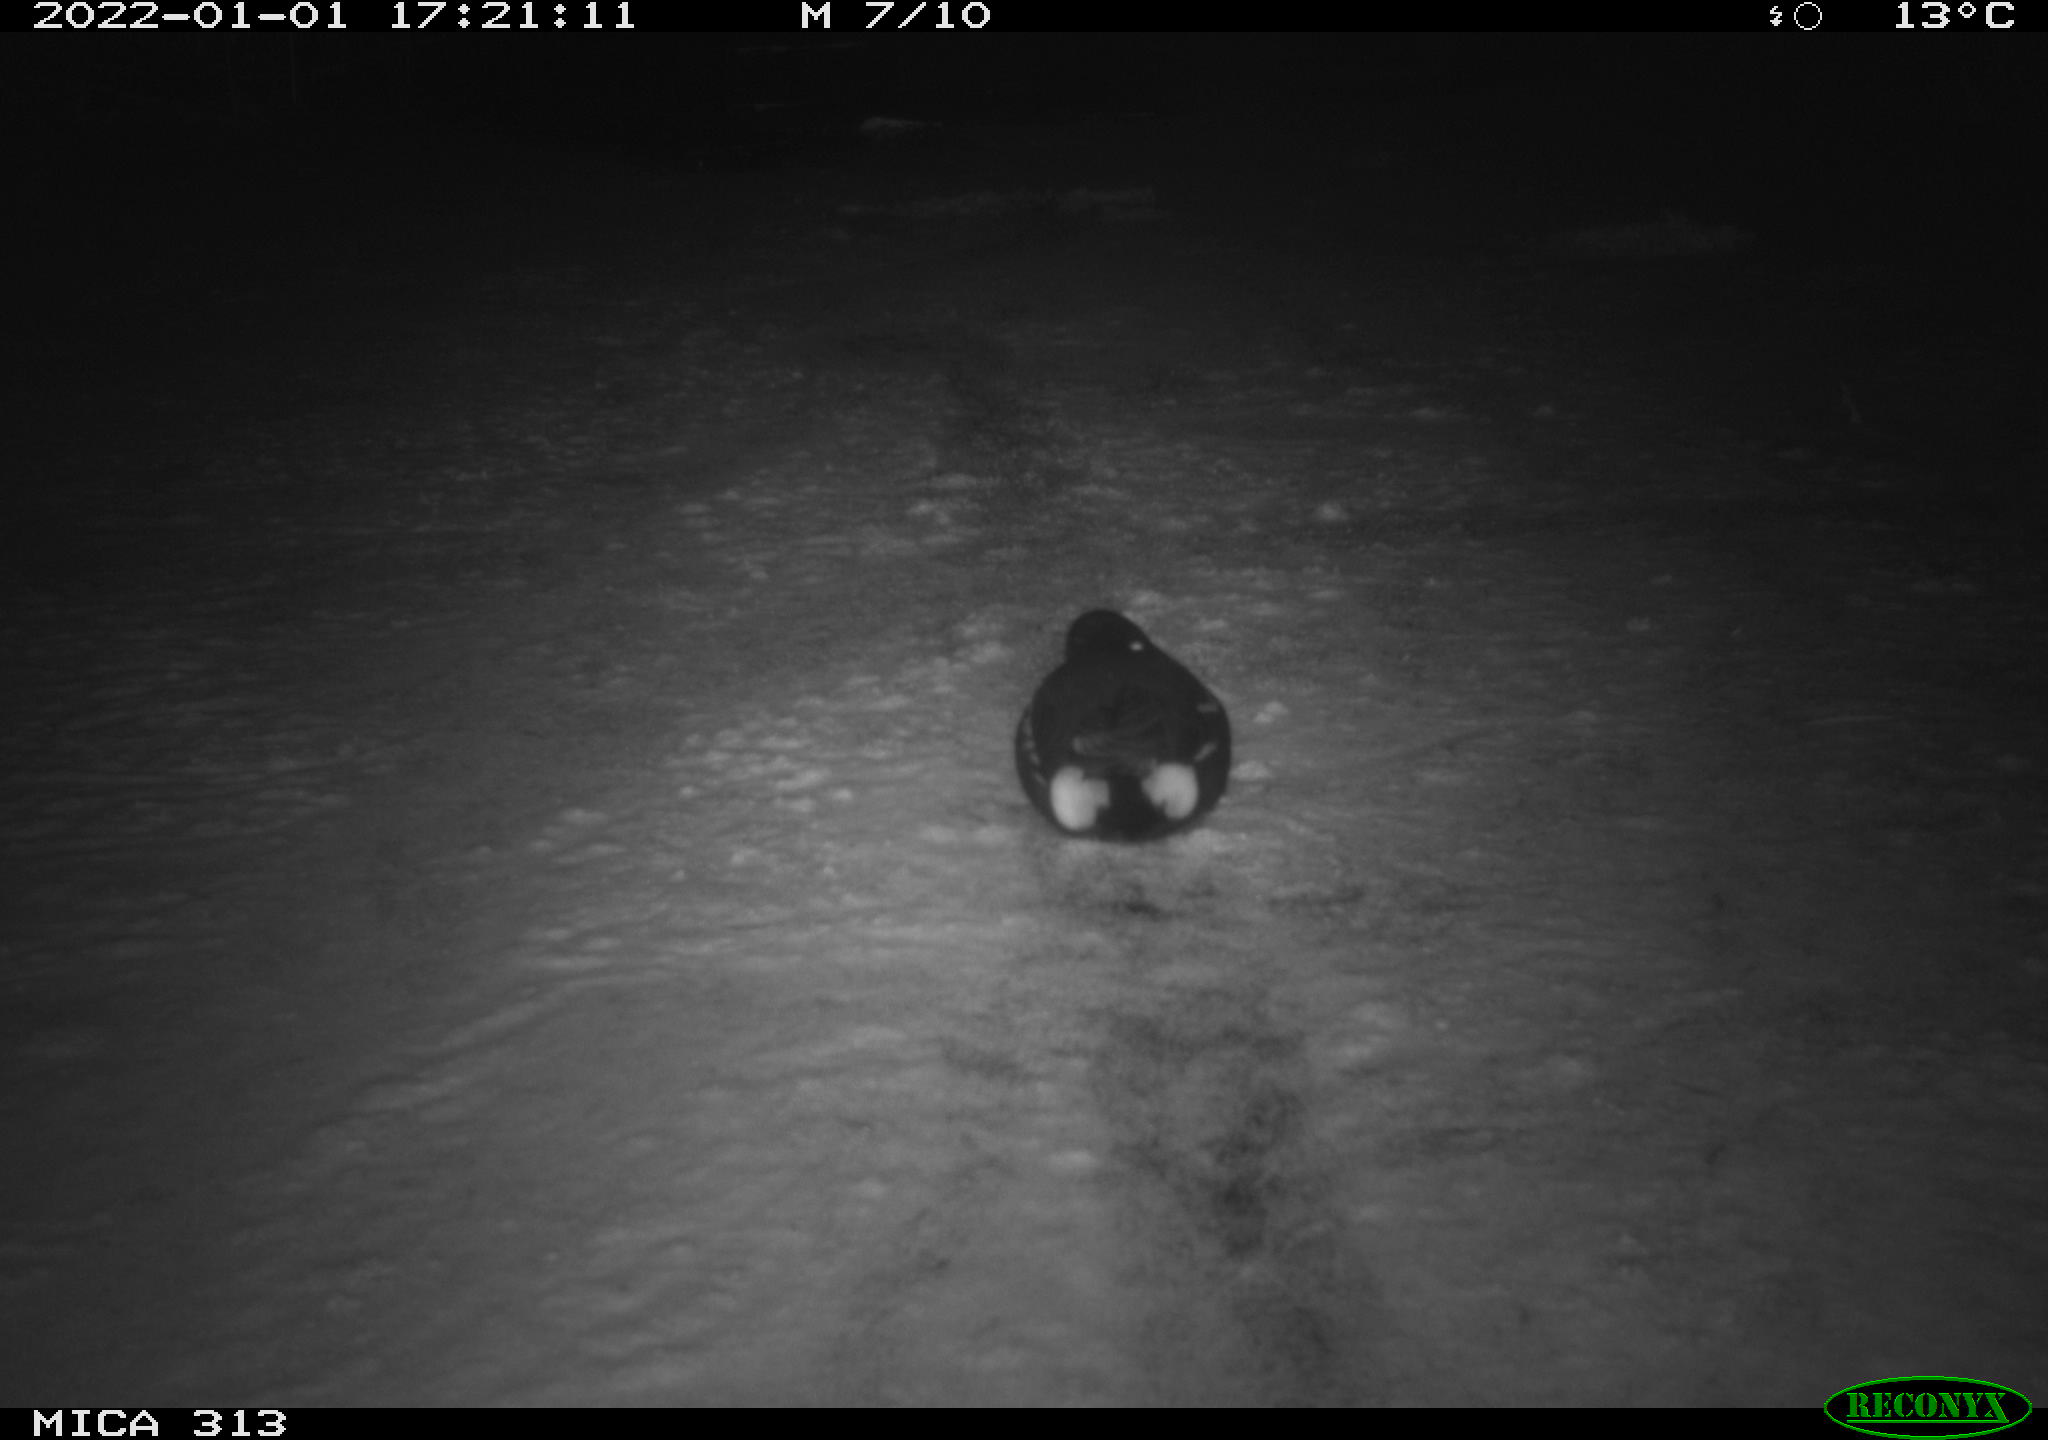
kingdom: Animalia
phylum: Chordata
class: Aves
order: Gruiformes
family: Rallidae
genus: Gallinula
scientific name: Gallinula chloropus
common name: Common moorhen
